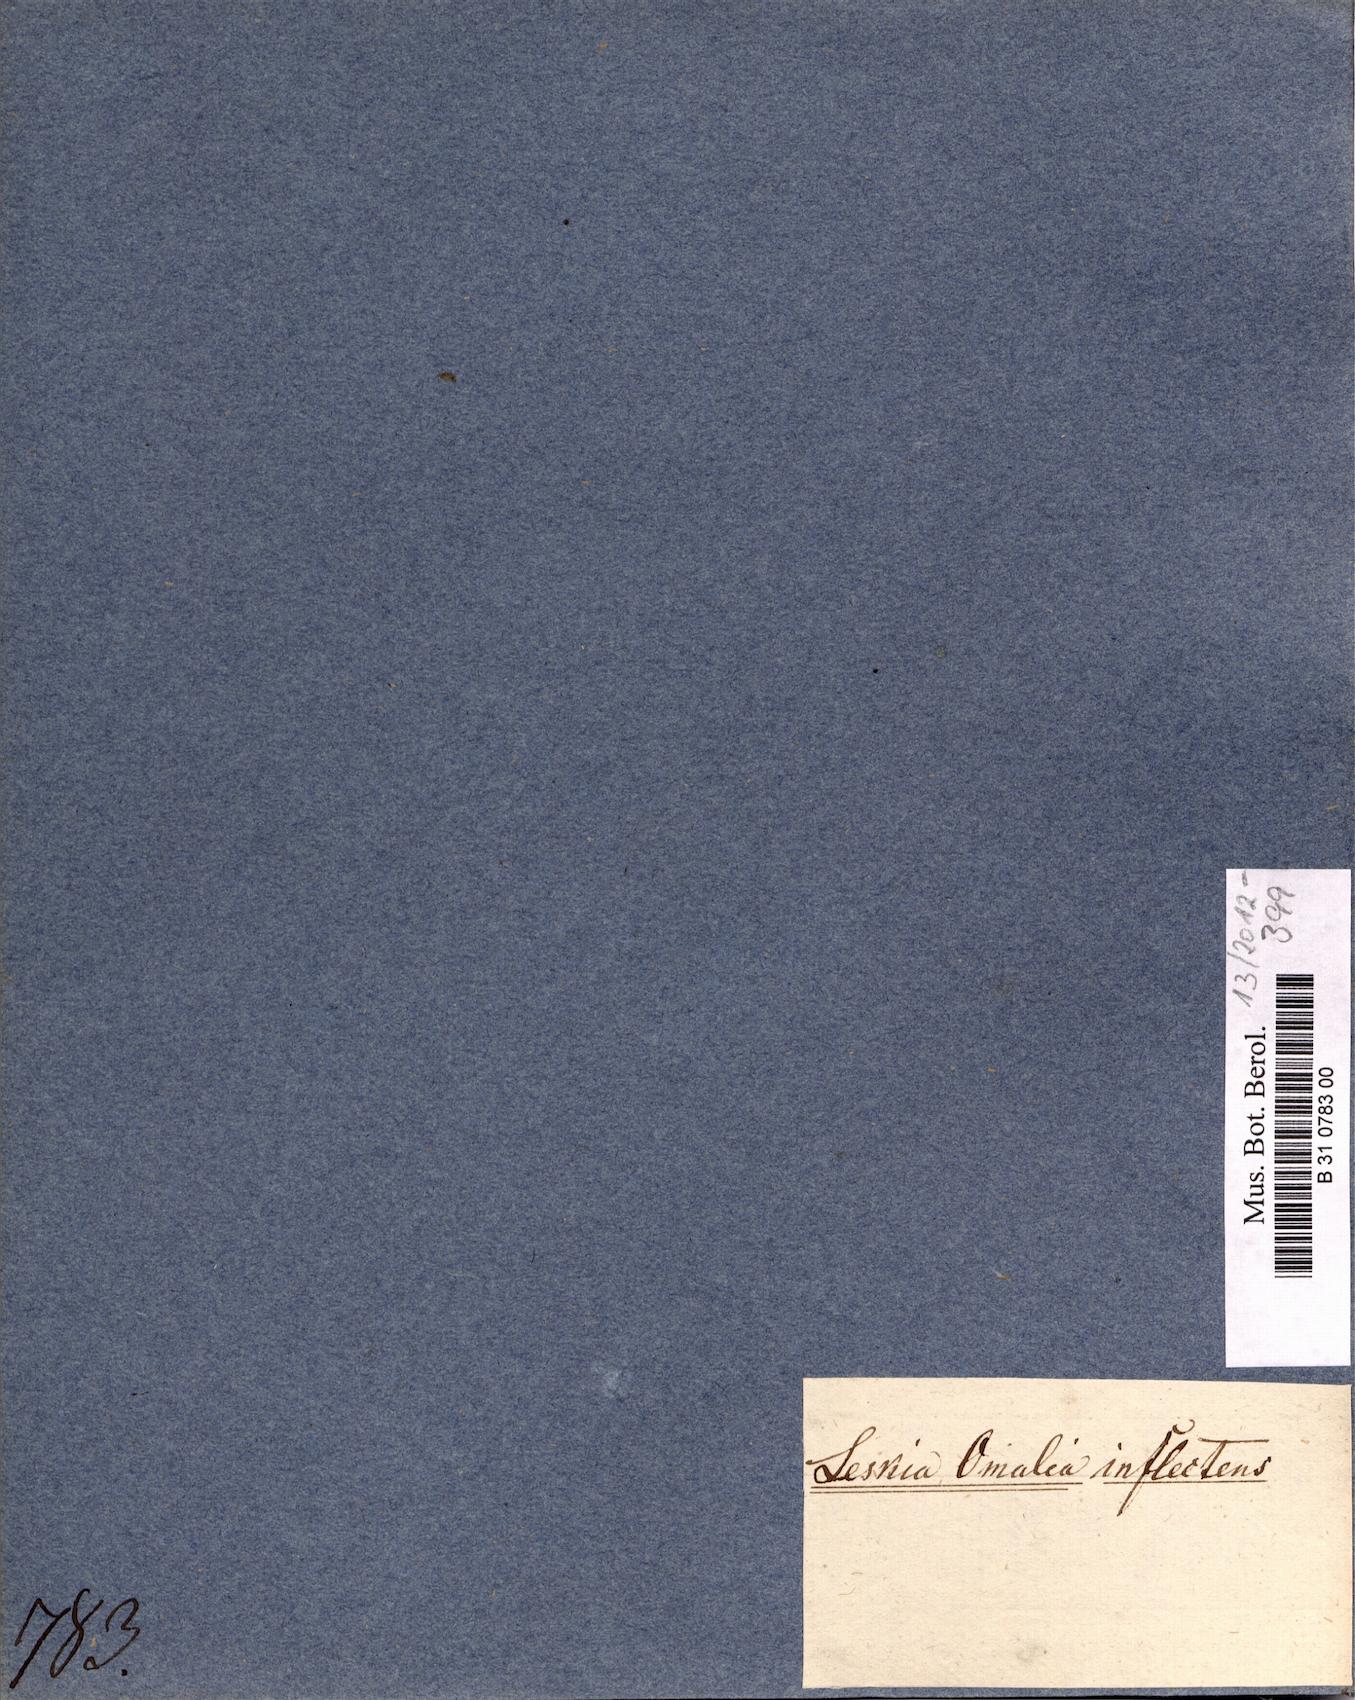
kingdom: Plantae
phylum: Bryophyta
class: Bryopsida
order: Hypnales
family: Hypnaceae
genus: Vesicularia
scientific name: Vesicularia inflectens
